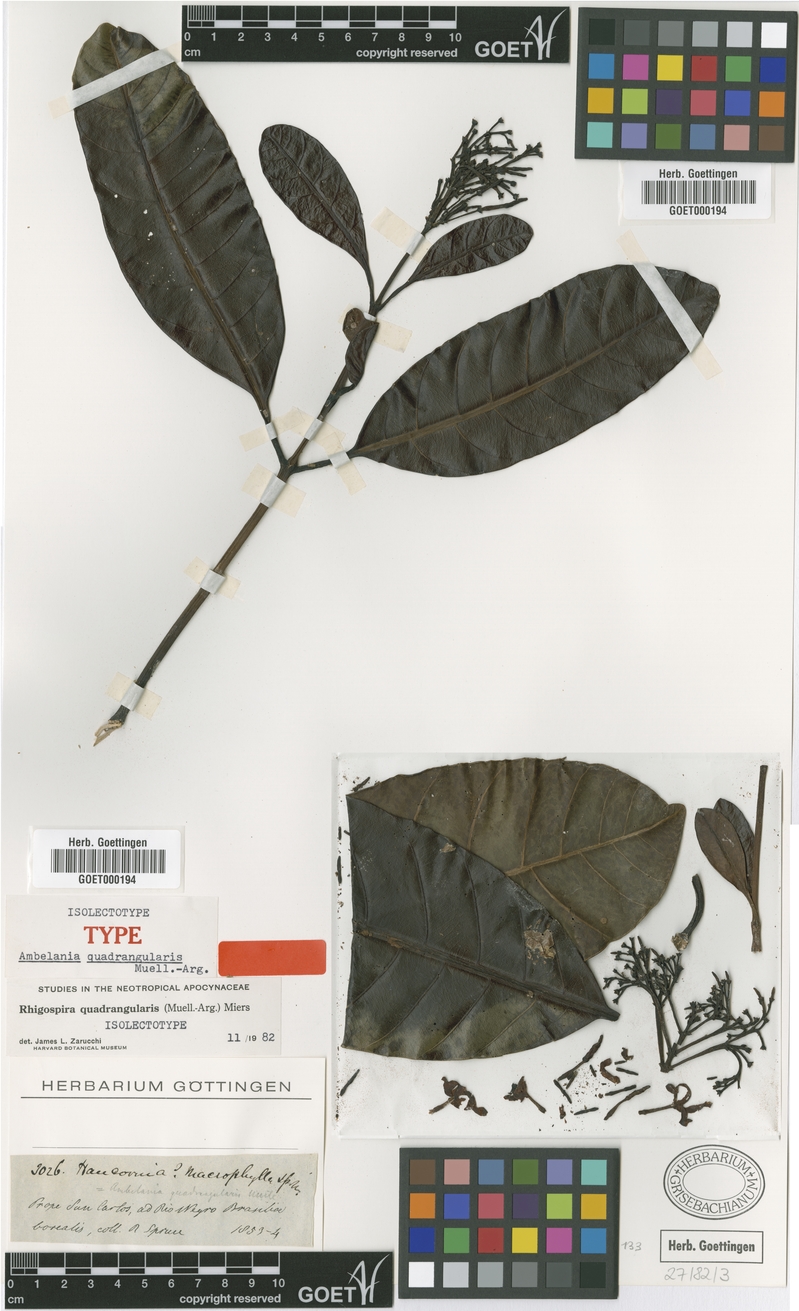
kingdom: Plantae
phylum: Tracheophyta
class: Magnoliopsida
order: Gentianales
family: Apocynaceae
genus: Rhigospira
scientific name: Rhigospira quadrangularis
